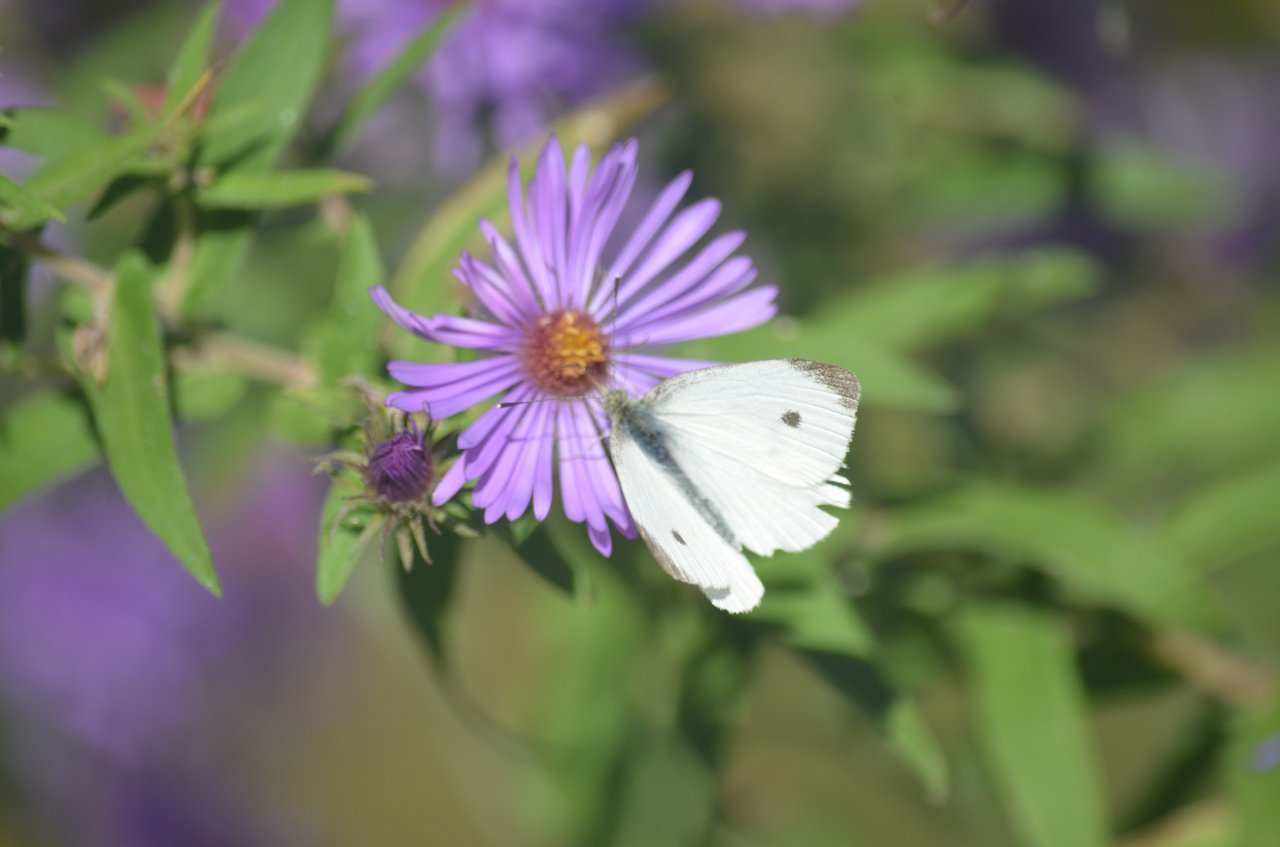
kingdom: Animalia
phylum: Arthropoda
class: Insecta
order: Lepidoptera
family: Pieridae
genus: Pieris
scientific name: Pieris rapae
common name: Cabbage White
